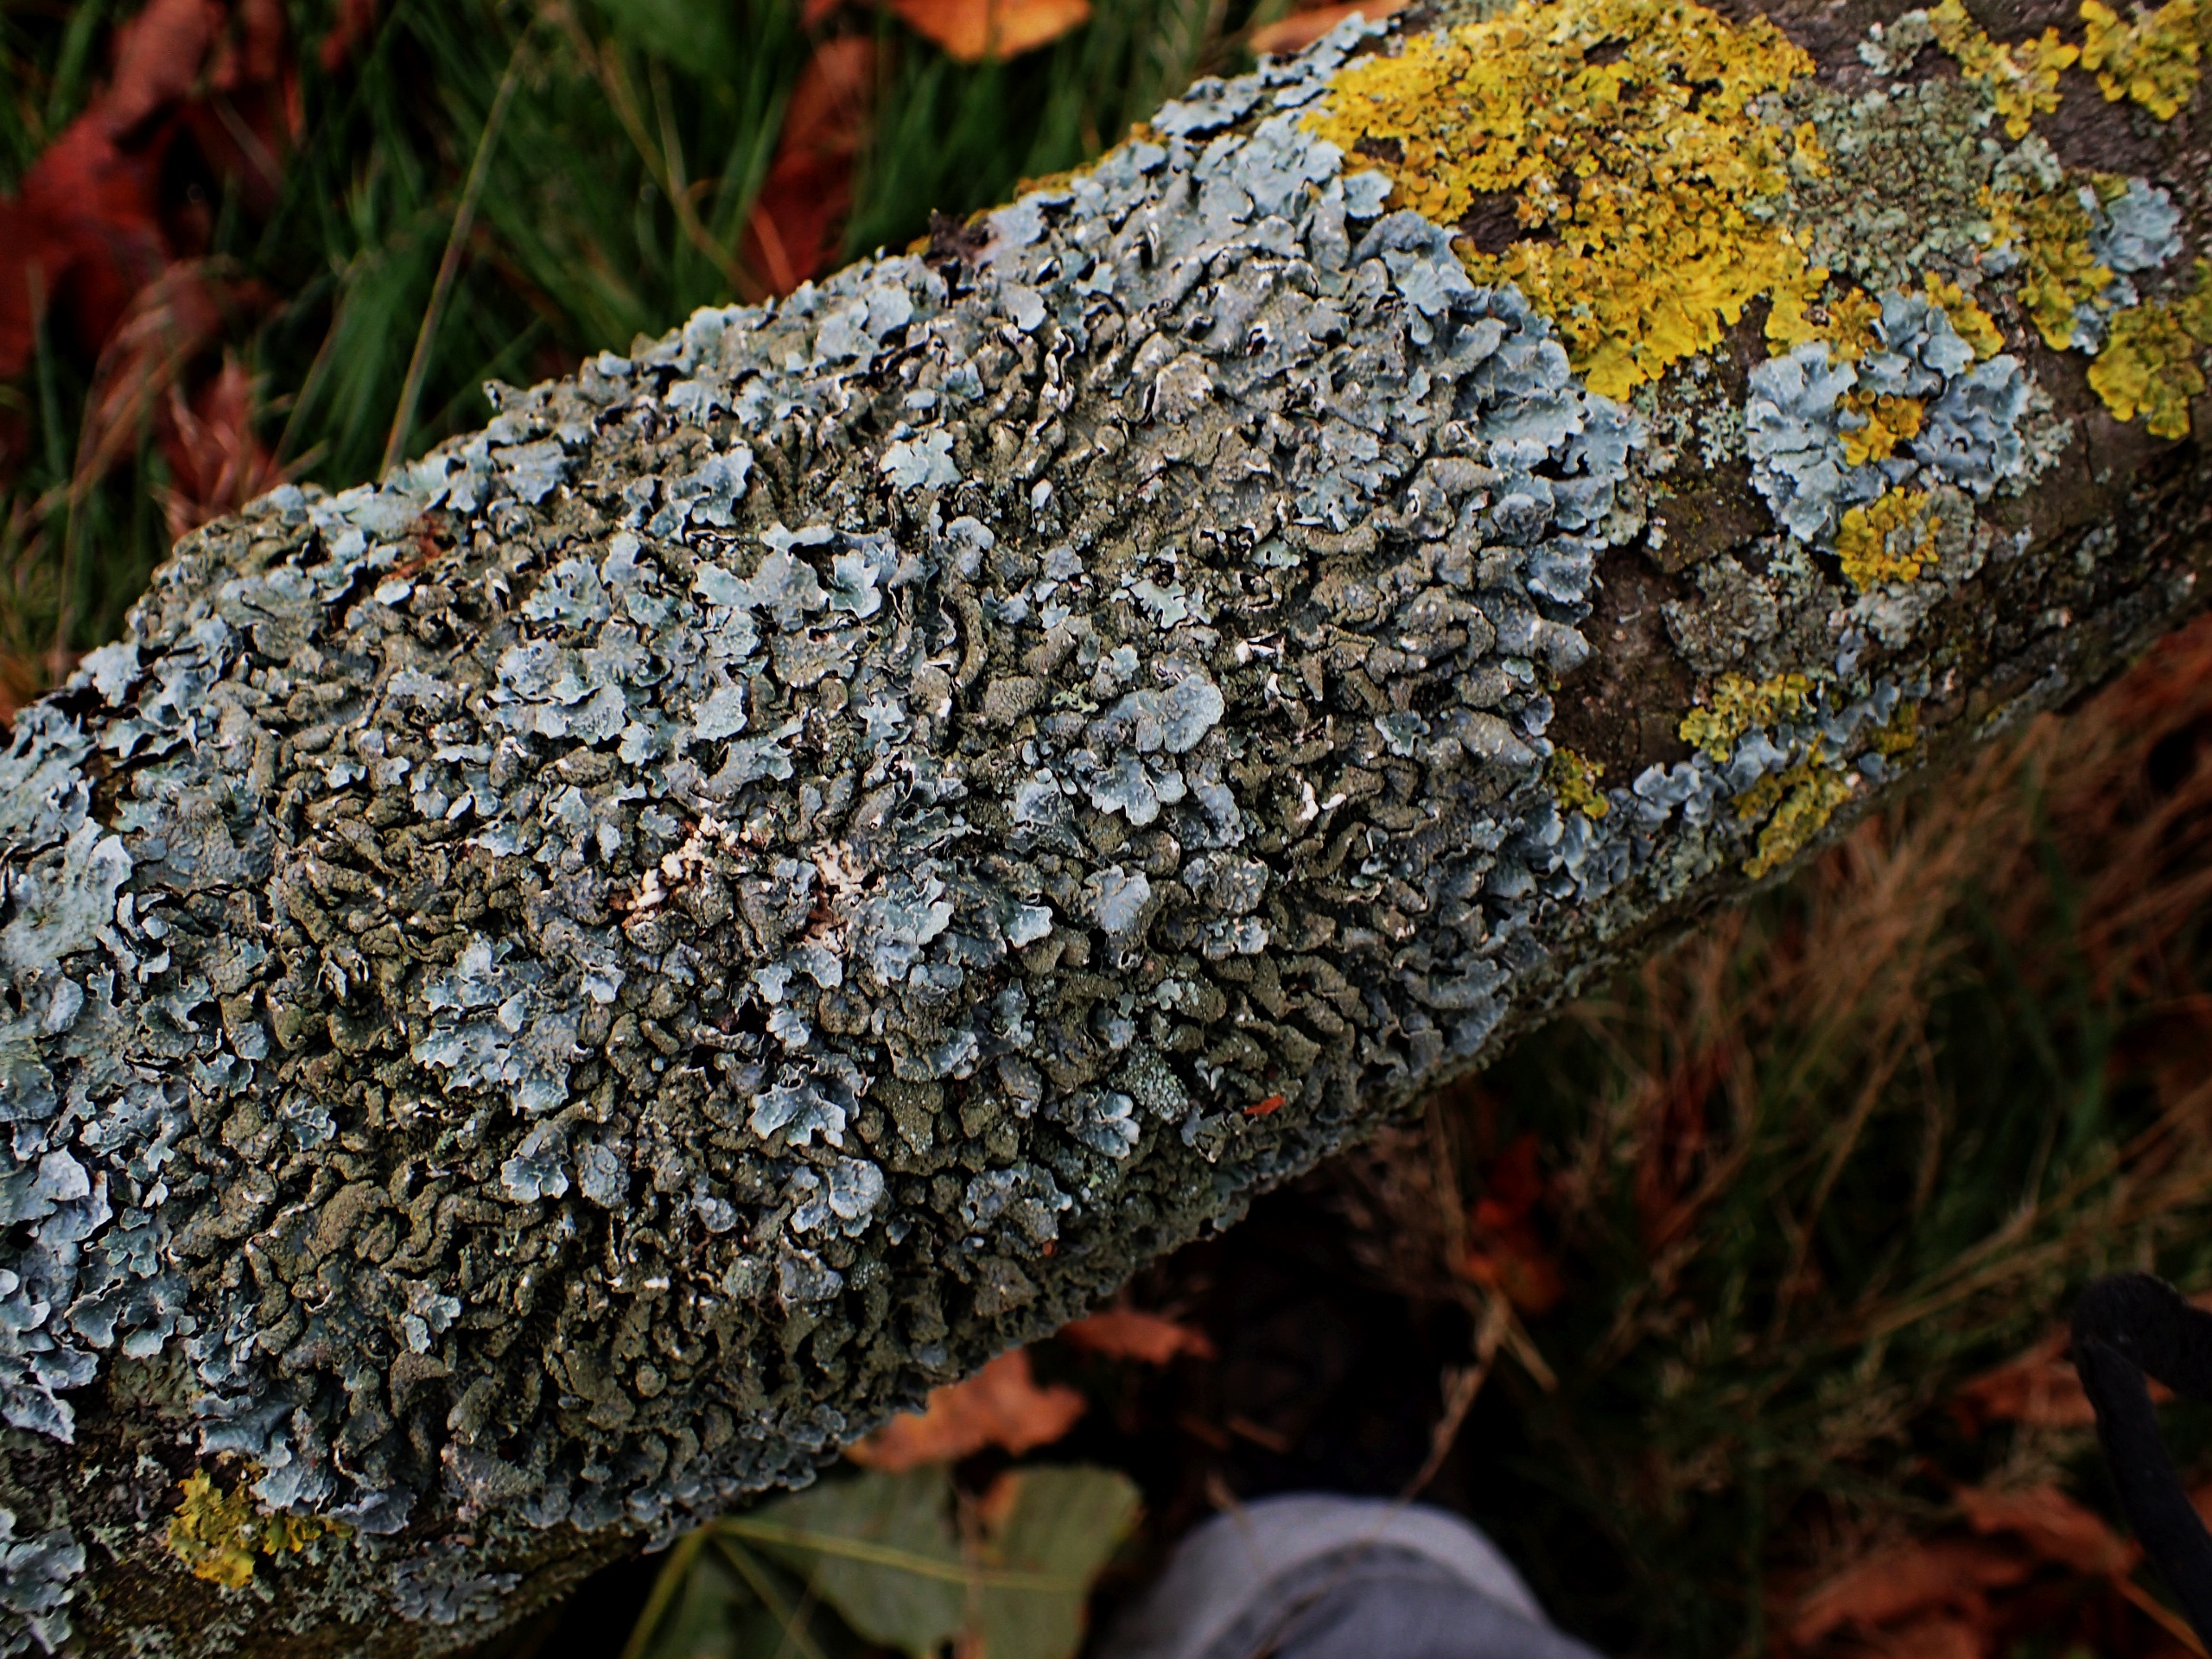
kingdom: Fungi
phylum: Ascomycota
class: Lecanoromycetes
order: Lecanorales
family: Parmeliaceae
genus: Parmelia
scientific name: Parmelia sulcata
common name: Rynket skållav
